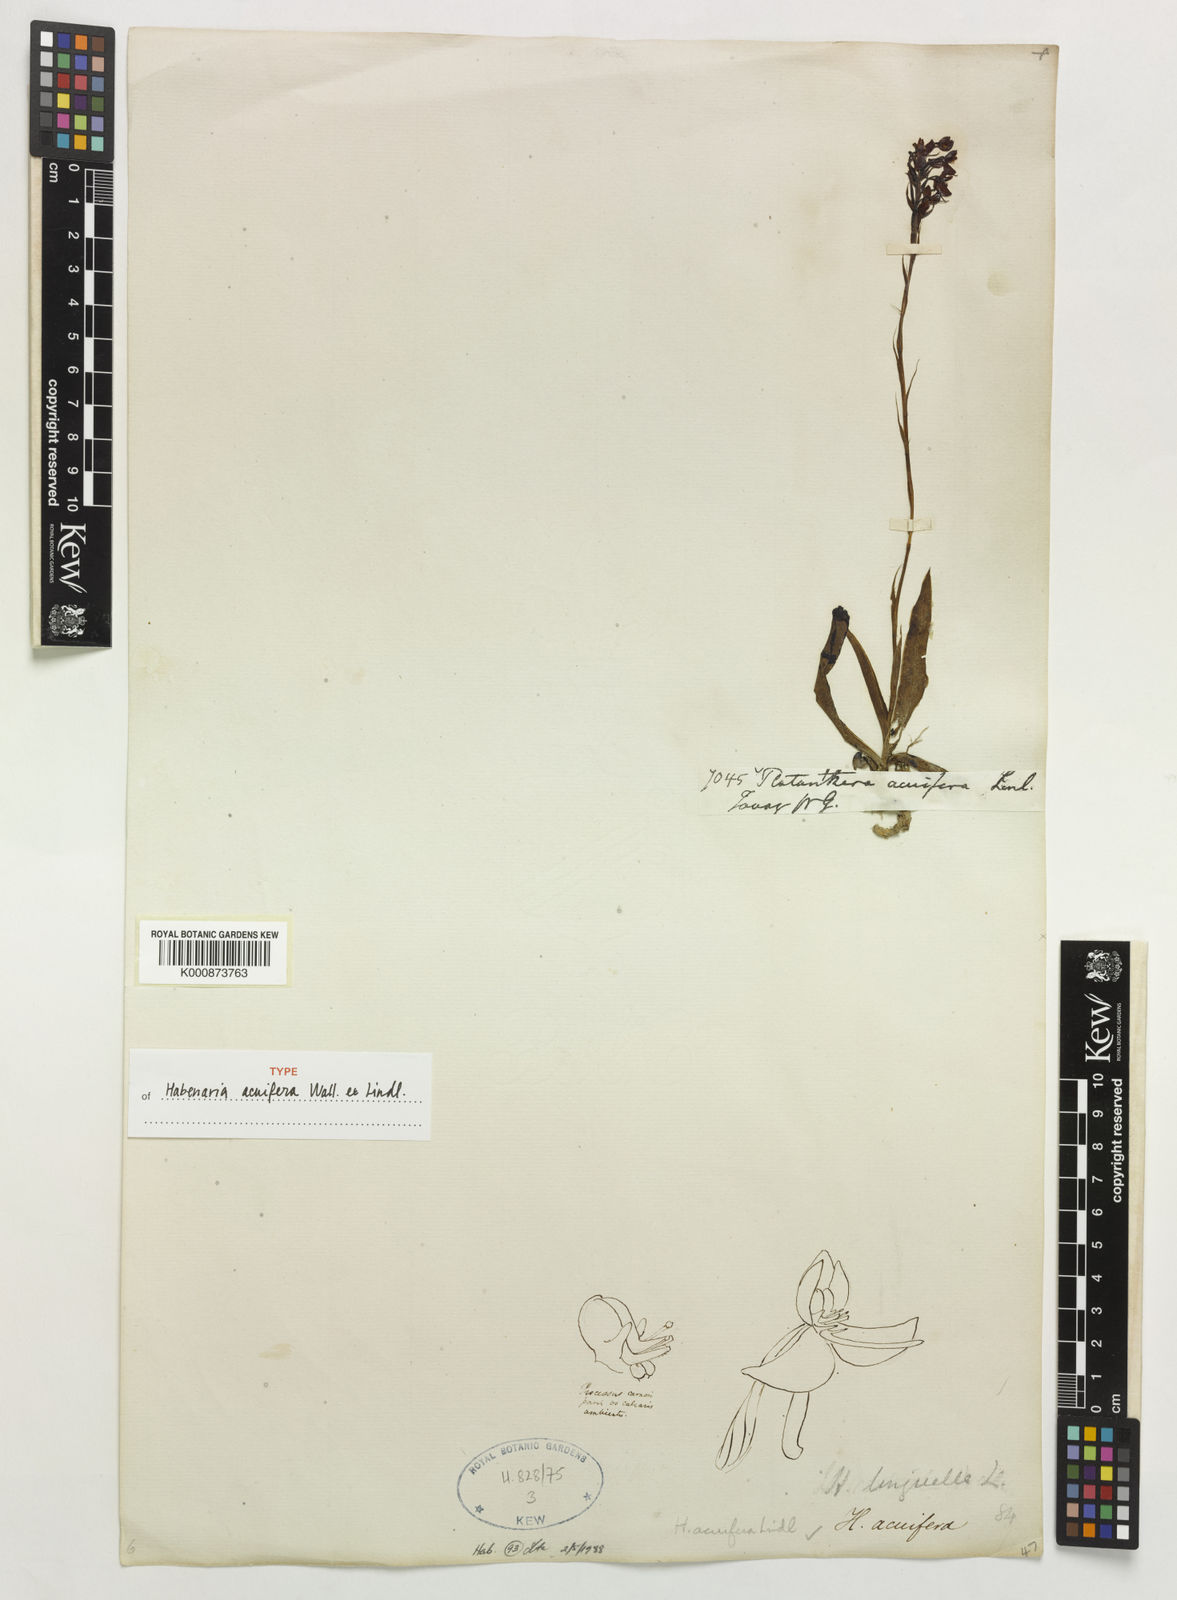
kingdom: Plantae
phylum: Tracheophyta
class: Liliopsida
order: Asparagales
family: Orchidaceae
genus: Habenaria
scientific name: Habenaria acuifera
